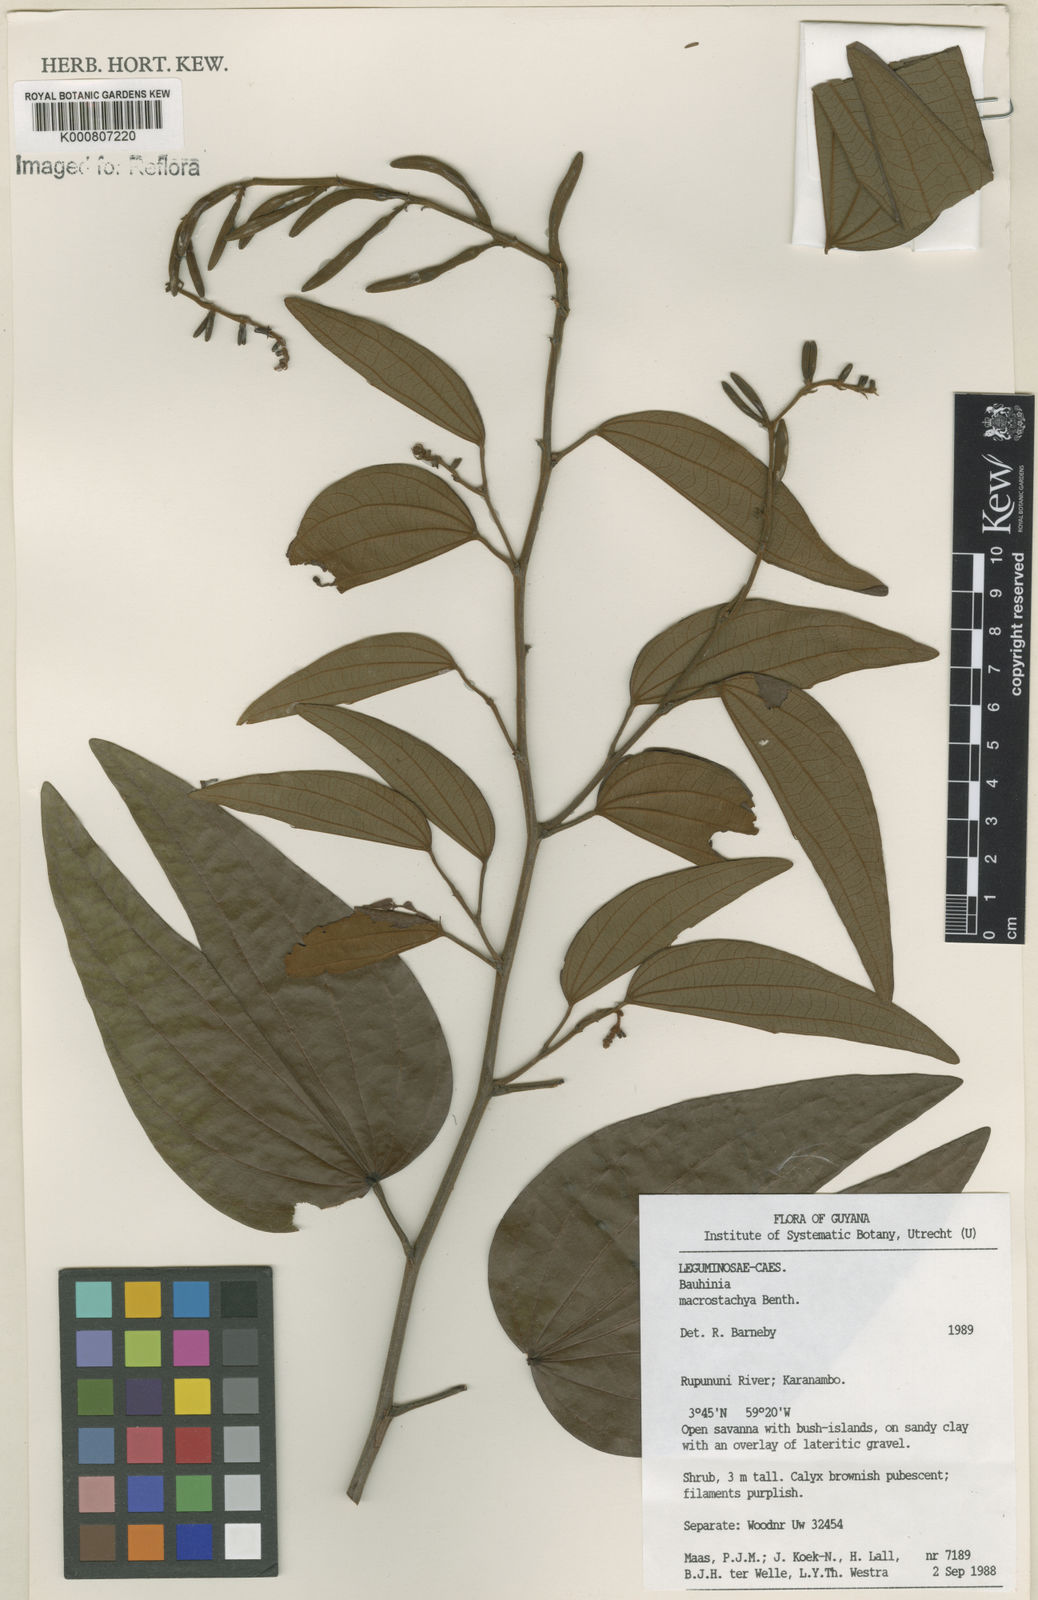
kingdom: Plantae
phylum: Tracheophyta
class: Magnoliopsida
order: Fabales
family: Fabaceae
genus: Bauhinia
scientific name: Bauhinia ungulata
